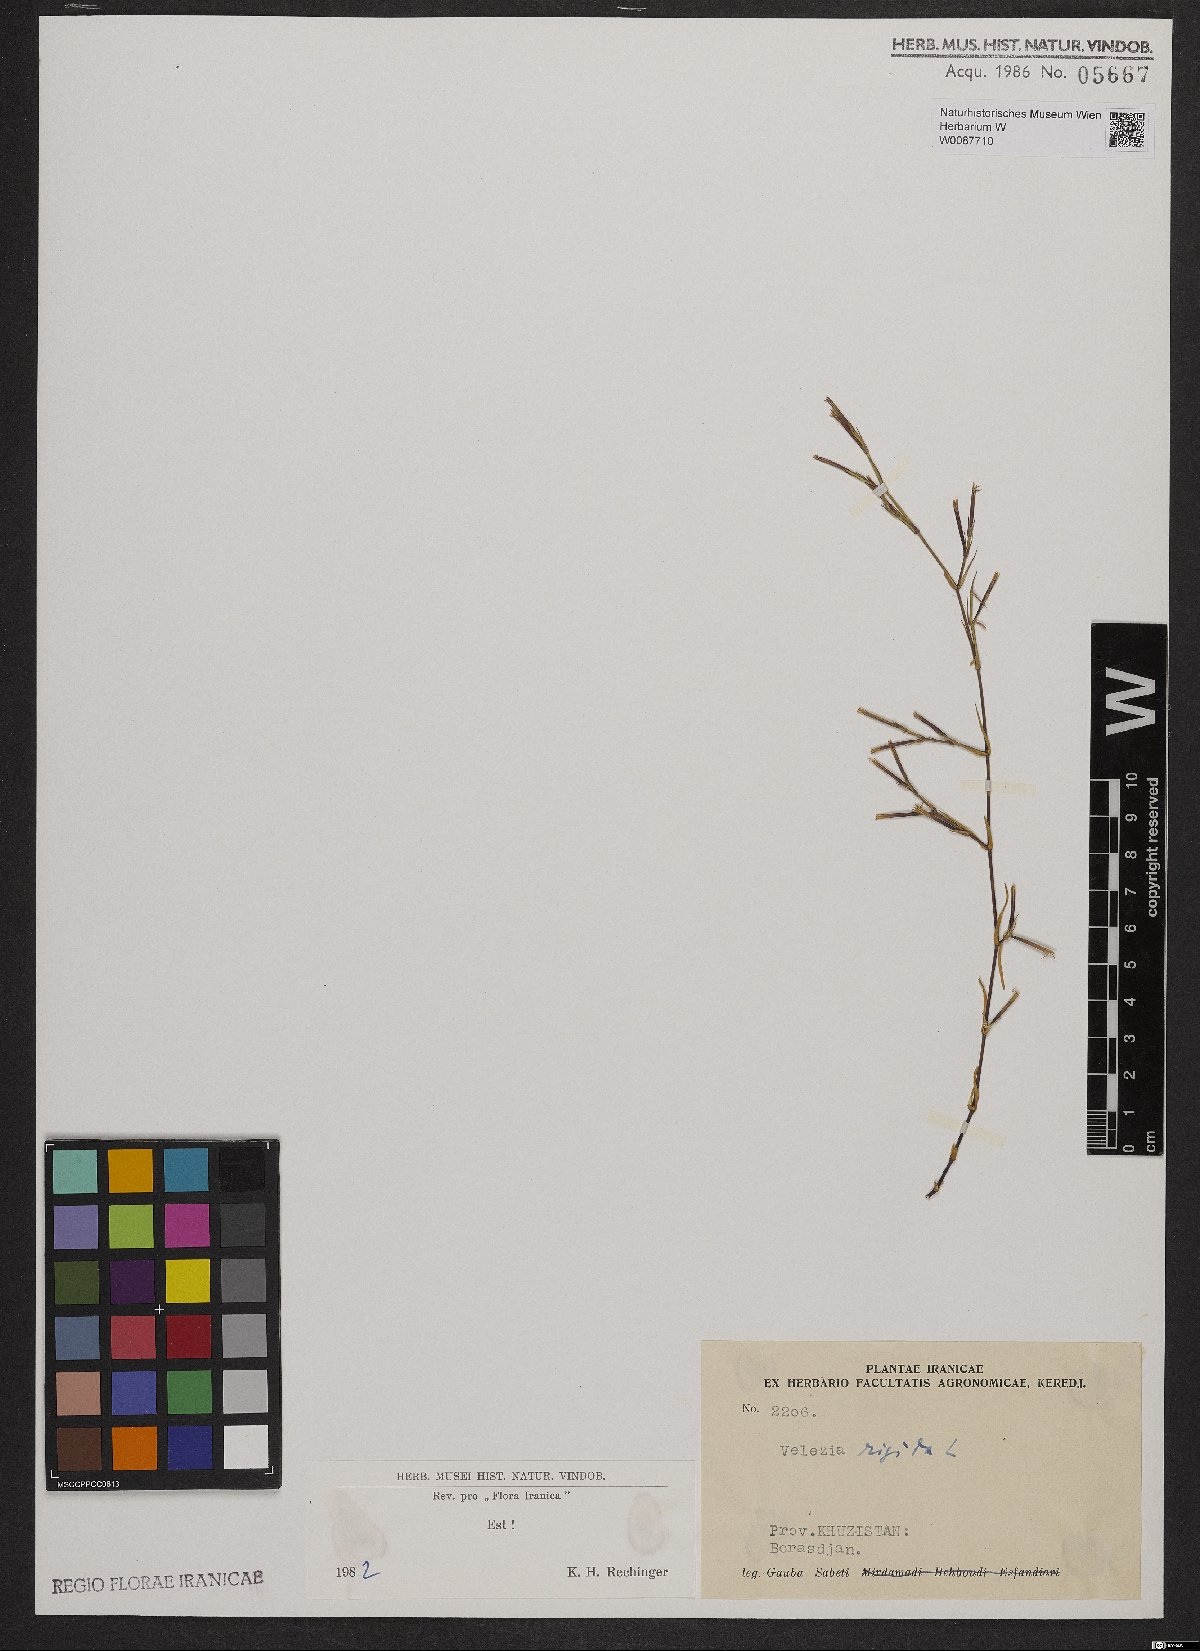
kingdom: Plantae
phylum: Tracheophyta
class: Magnoliopsida
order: Caryophyllales
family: Caryophyllaceae
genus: Dianthus
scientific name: Dianthus nudiflorus
